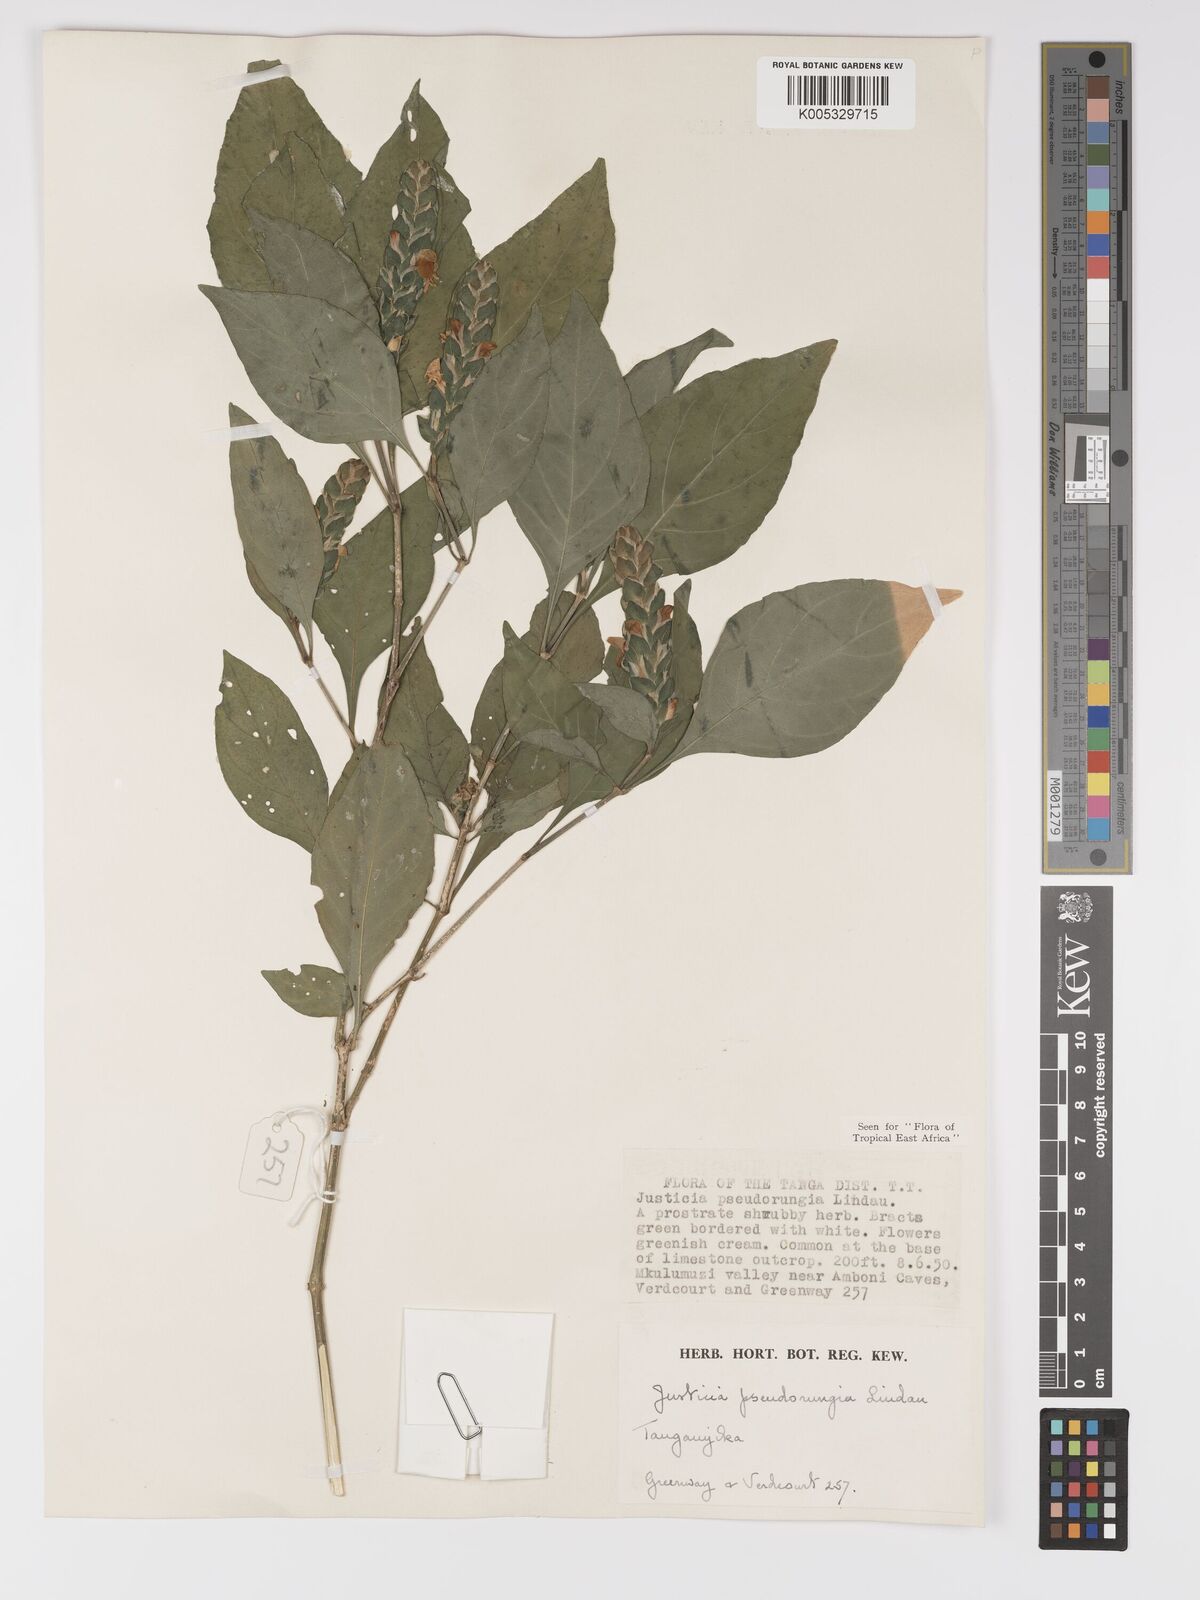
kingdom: Plantae
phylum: Tracheophyta
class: Magnoliopsida
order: Lamiales
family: Acanthaceae
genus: Justicia
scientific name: Justicia pseudorungia
